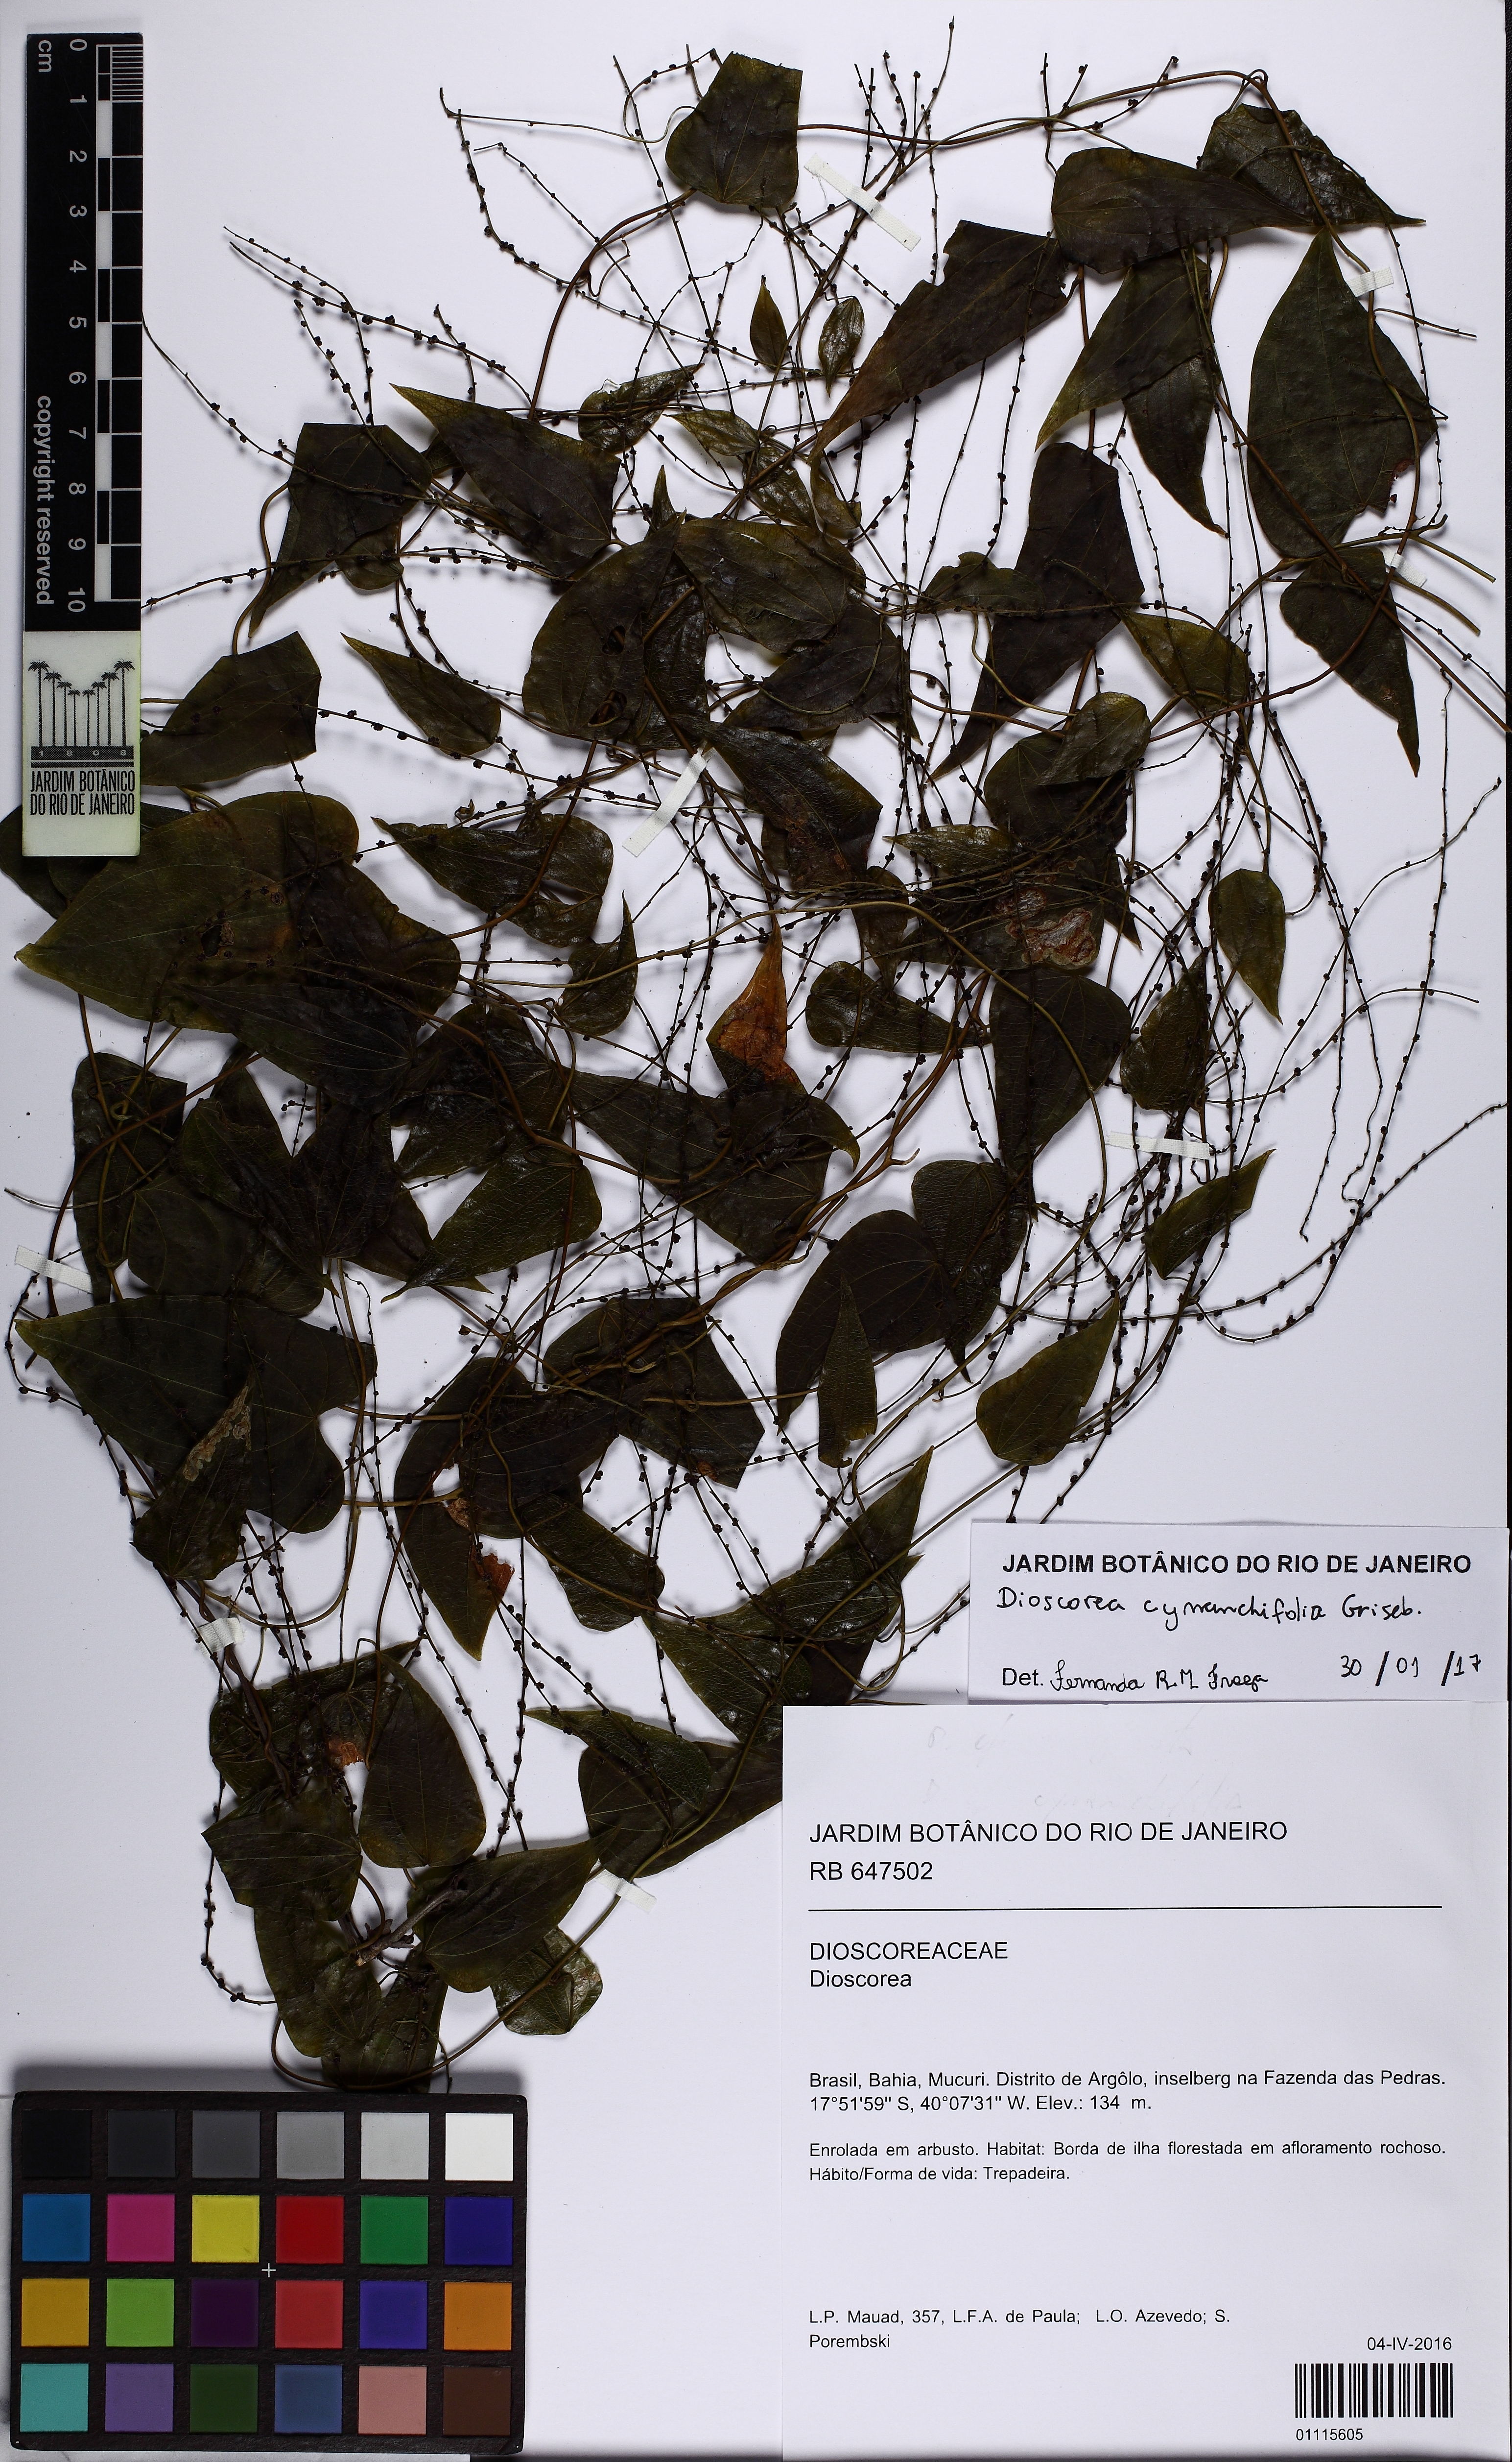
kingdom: Plantae
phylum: Tracheophyta
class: Liliopsida
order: Dioscoreales
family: Dioscoreaceae
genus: Dioscorea
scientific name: Dioscorea marginata
